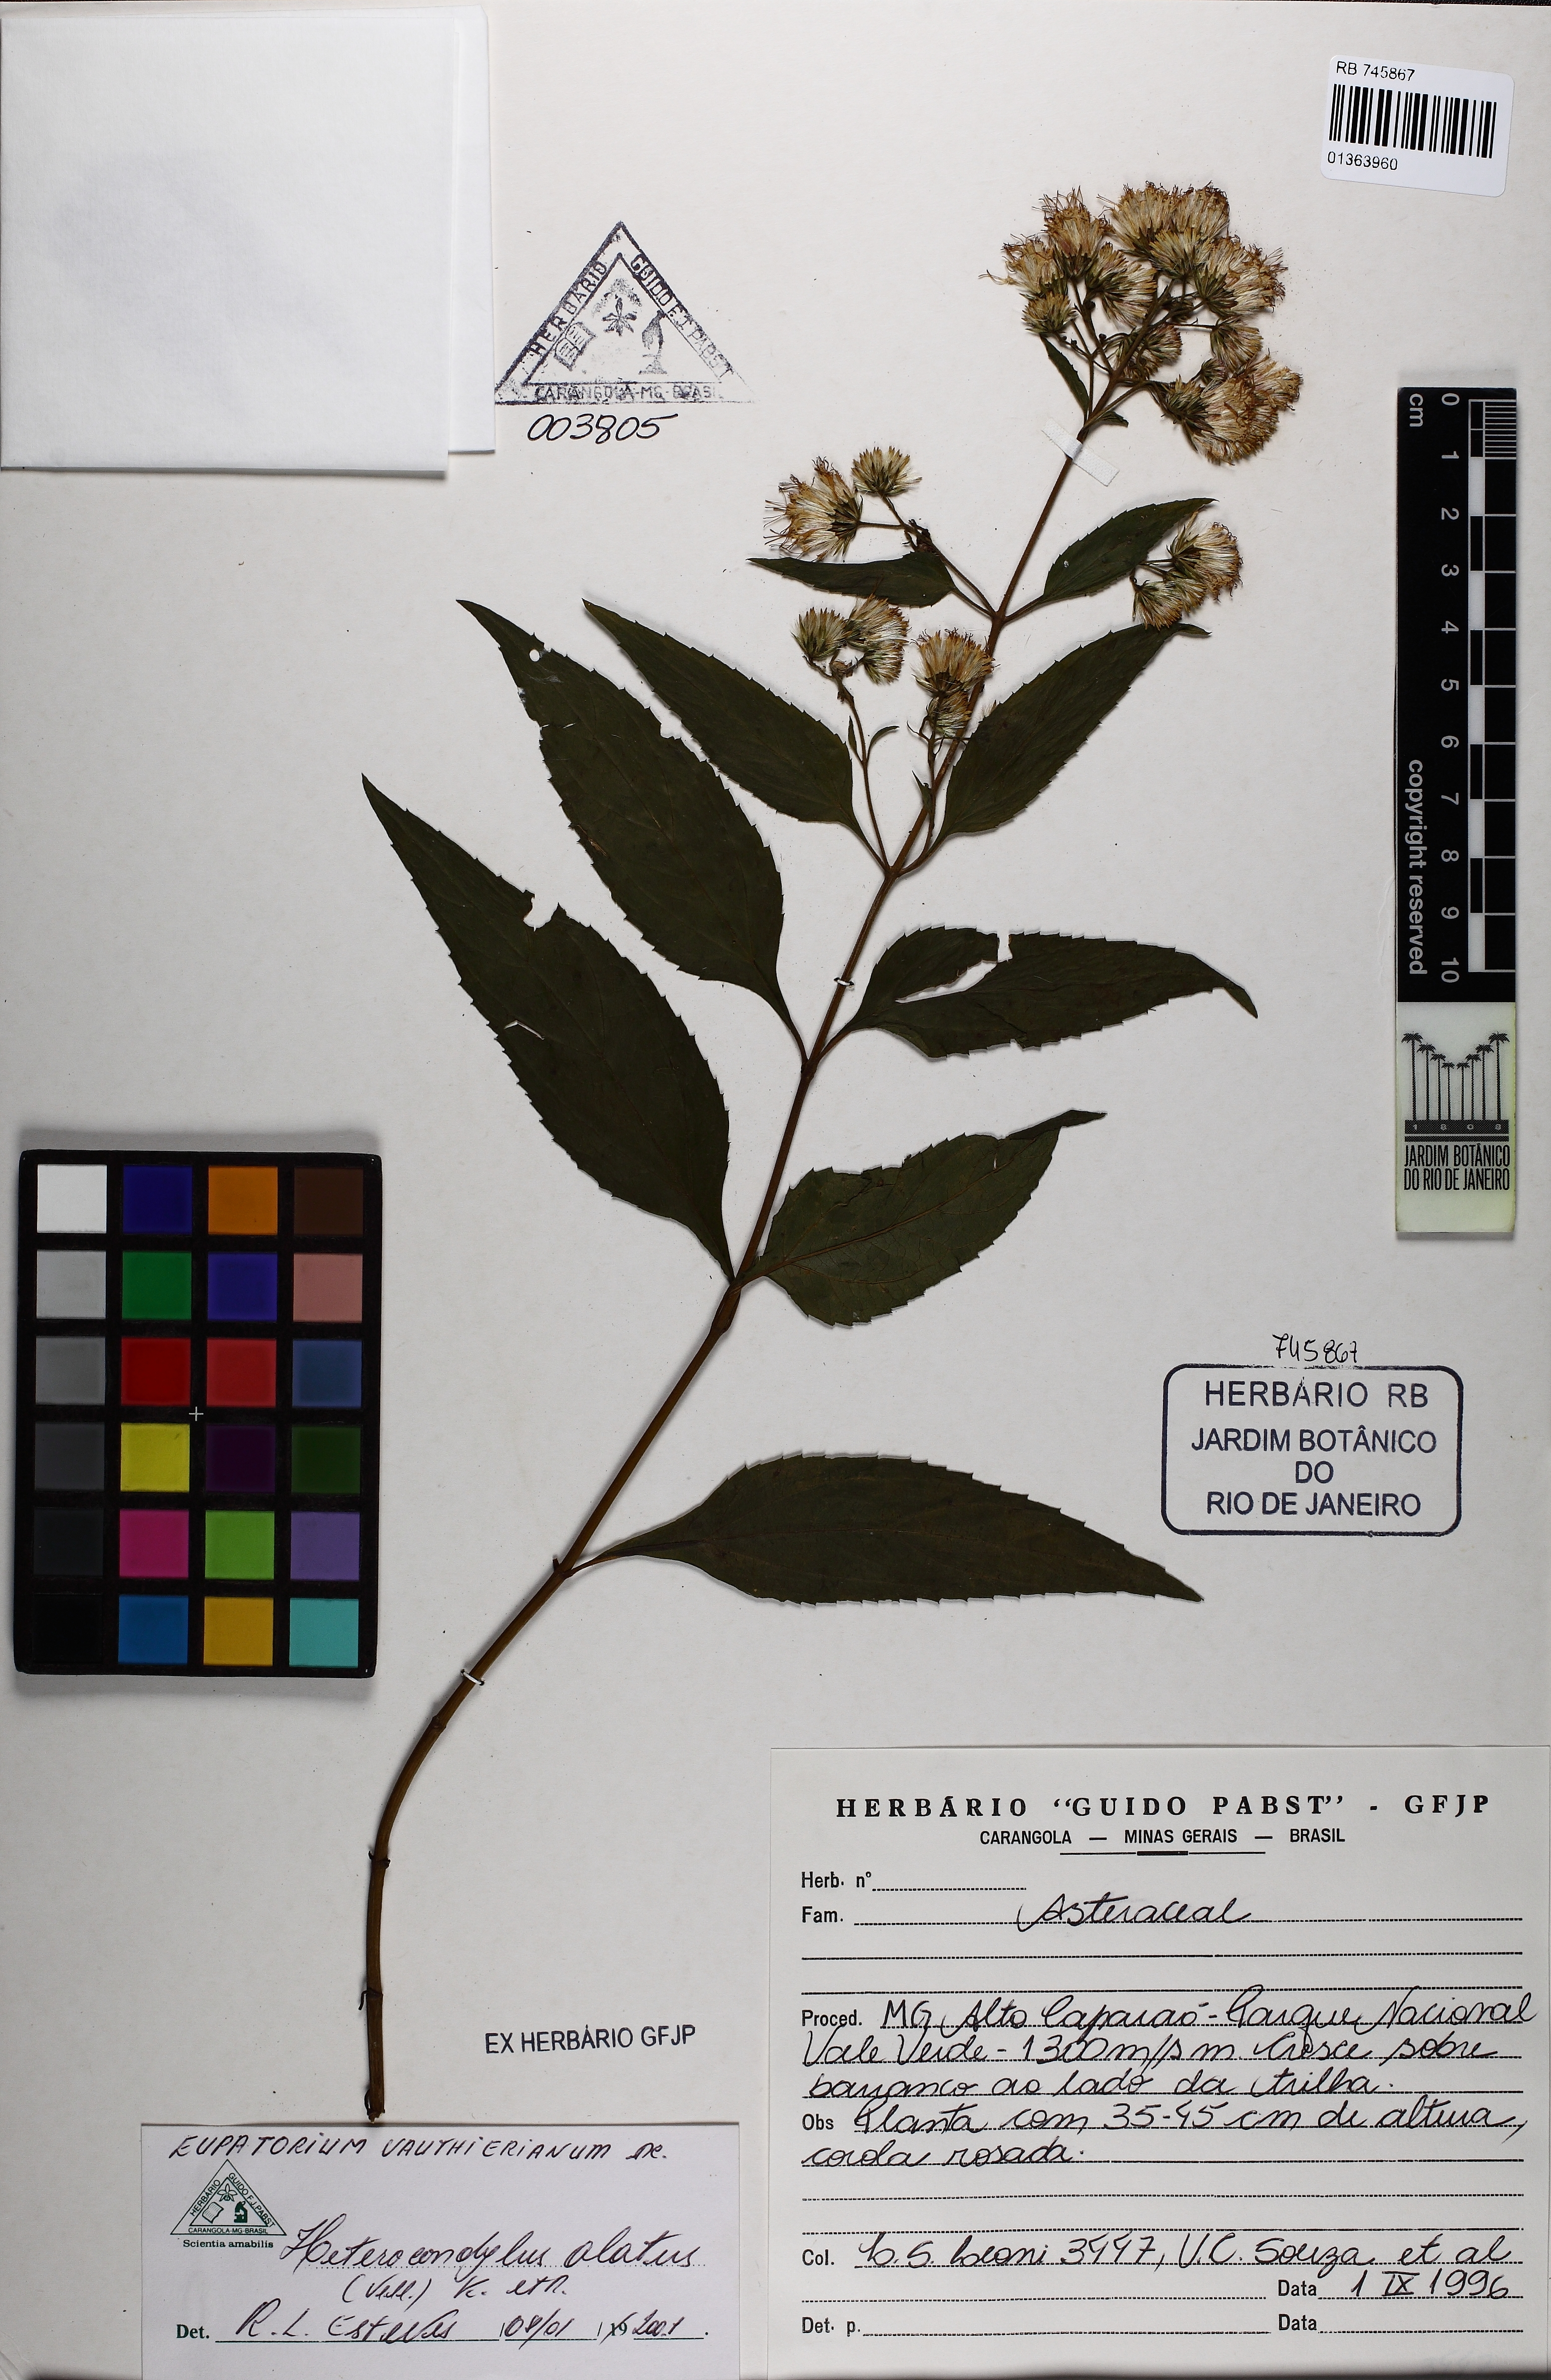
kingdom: Plantae
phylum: Tracheophyta
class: Magnoliopsida
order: Asterales
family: Asteraceae
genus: Heterocondylus
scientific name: Heterocondylus alatus
